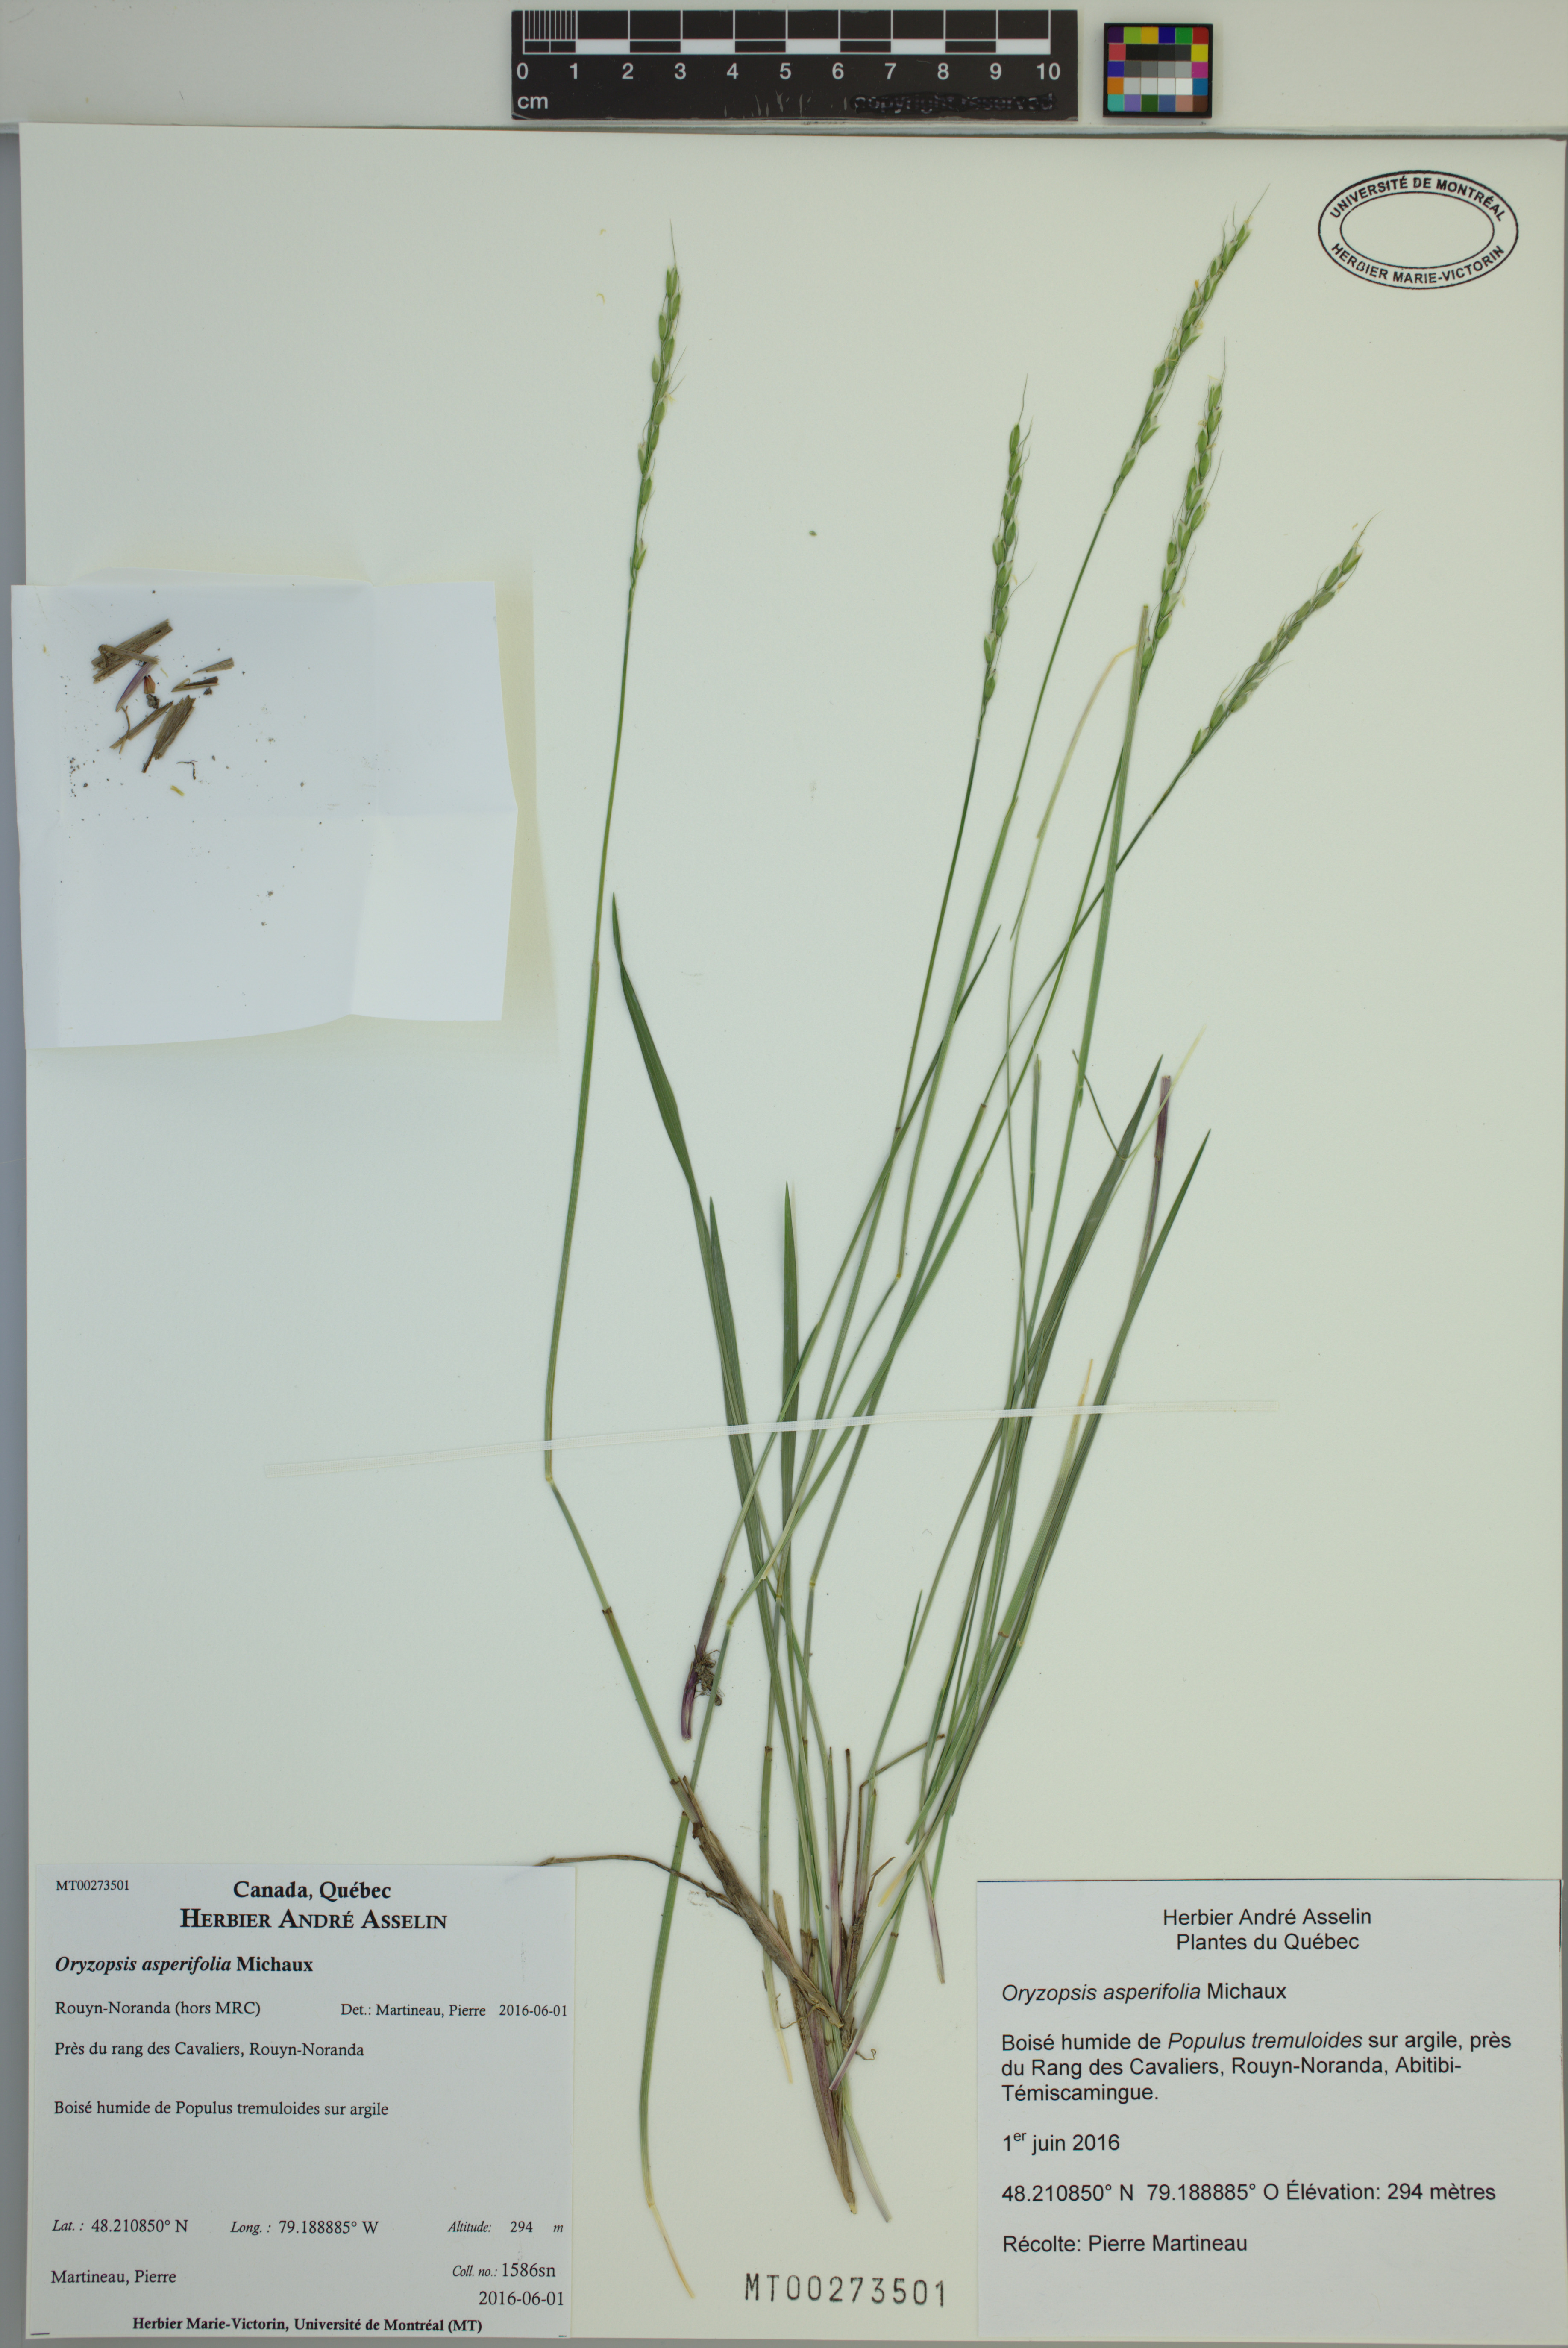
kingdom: Plantae
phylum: Tracheophyta
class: Liliopsida
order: Poales
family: Poaceae
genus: Oryzopsis
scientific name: Oryzopsis asperifolia
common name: Rough-leaved mountain rice
